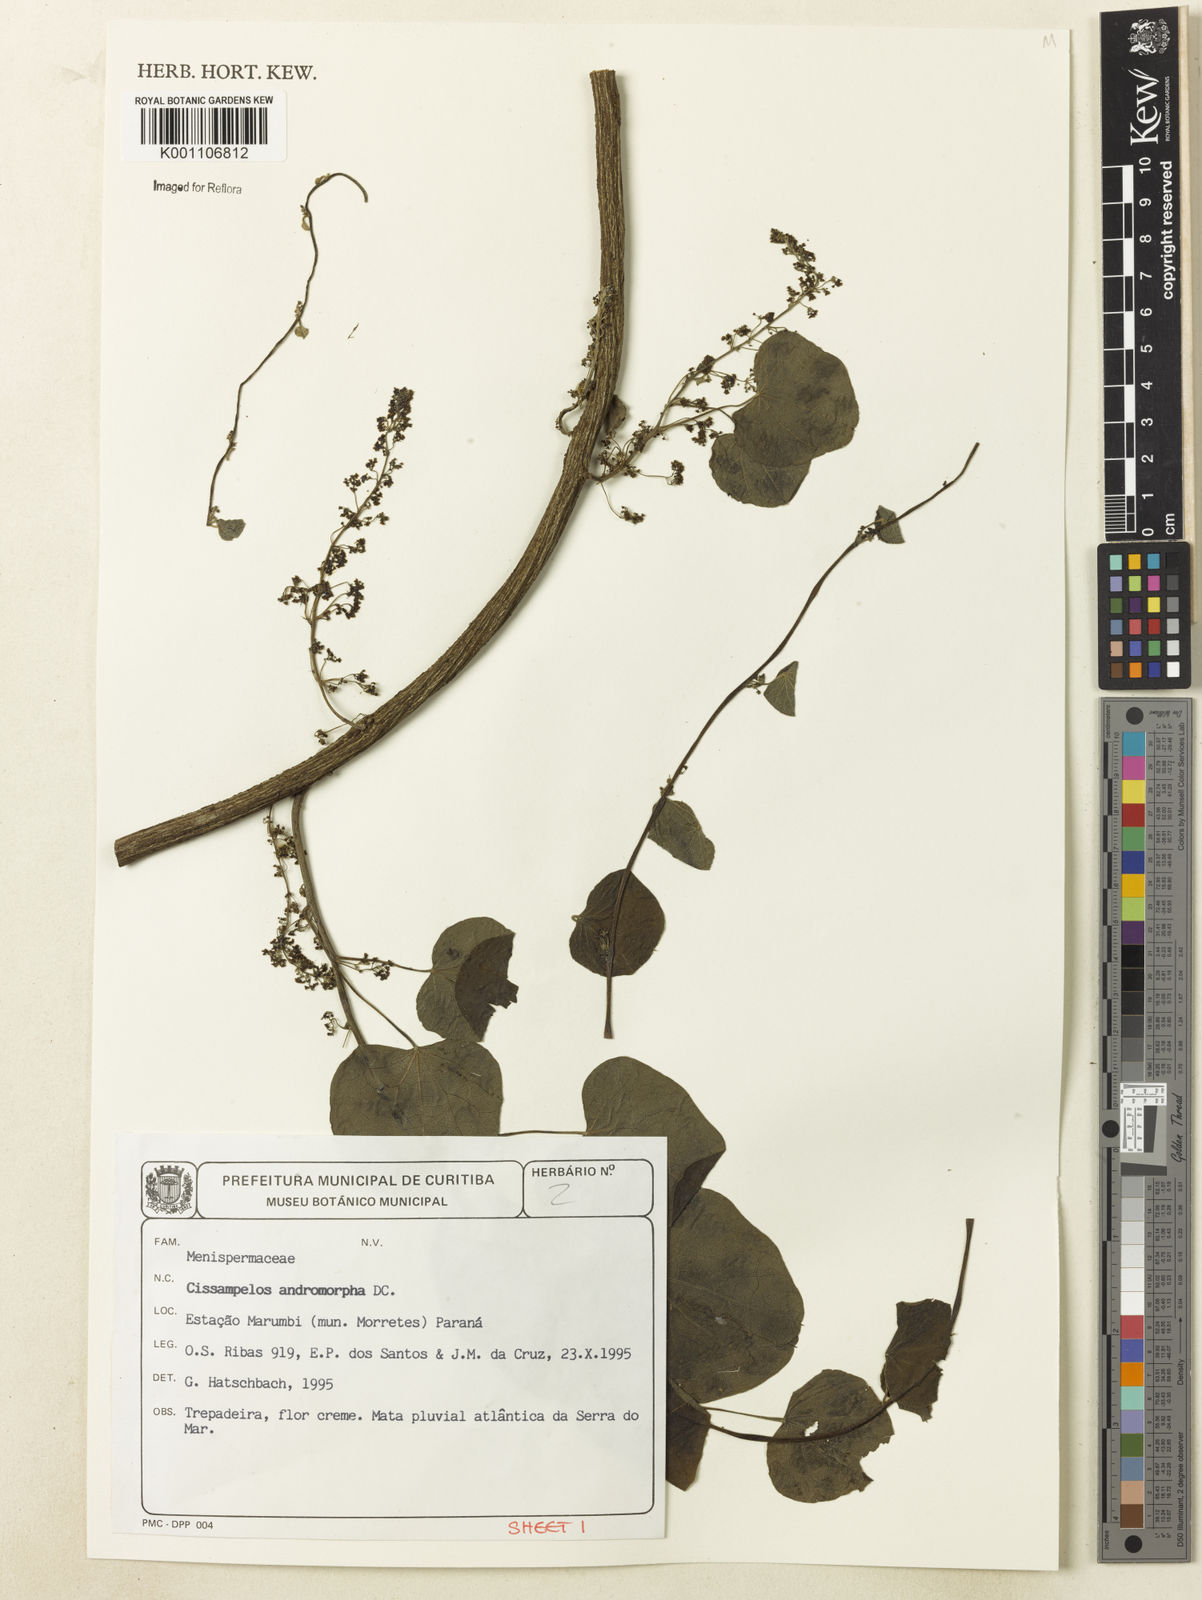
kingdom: Plantae
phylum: Tracheophyta
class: Magnoliopsida
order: Ranunculales
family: Menispermaceae
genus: Cissampelos
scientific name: Cissampelos andromorpha
